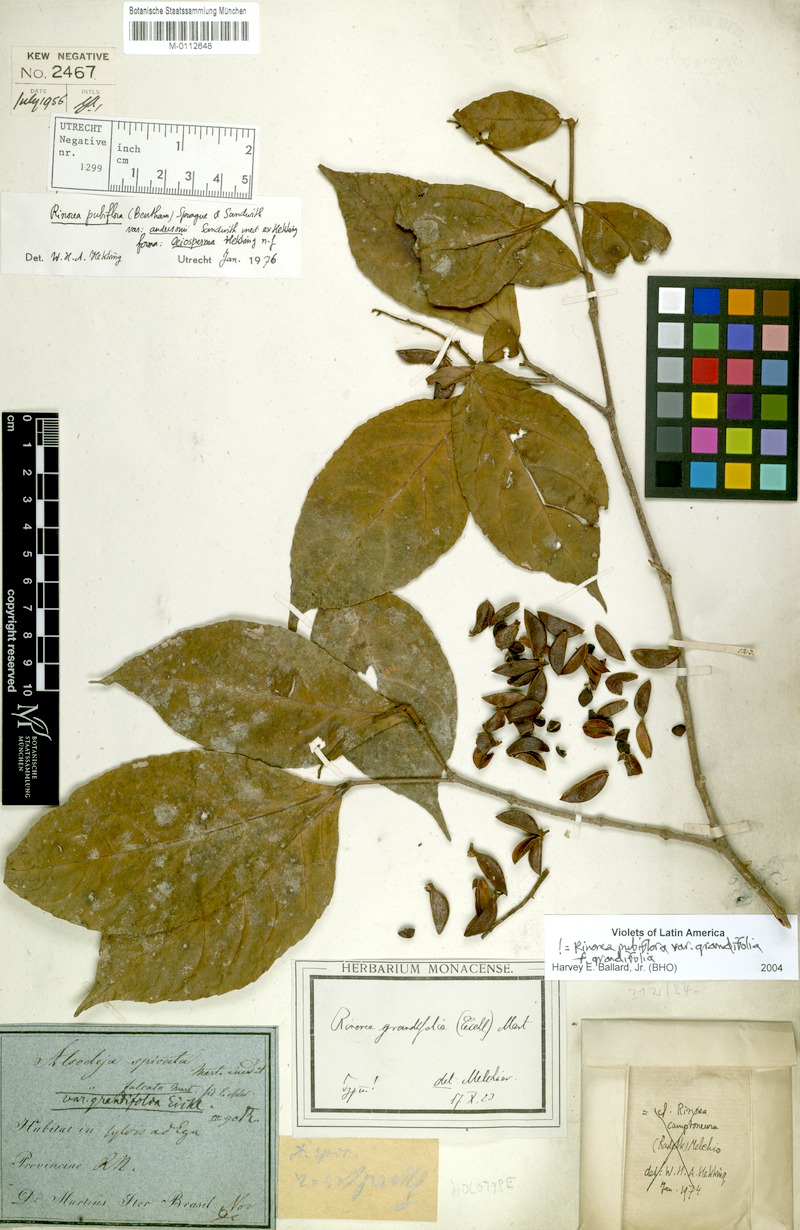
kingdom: Plantae
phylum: Tracheophyta
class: Magnoliopsida
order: Malpighiales
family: Violaceae
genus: Rinorea
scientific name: Rinorea pubiflora
